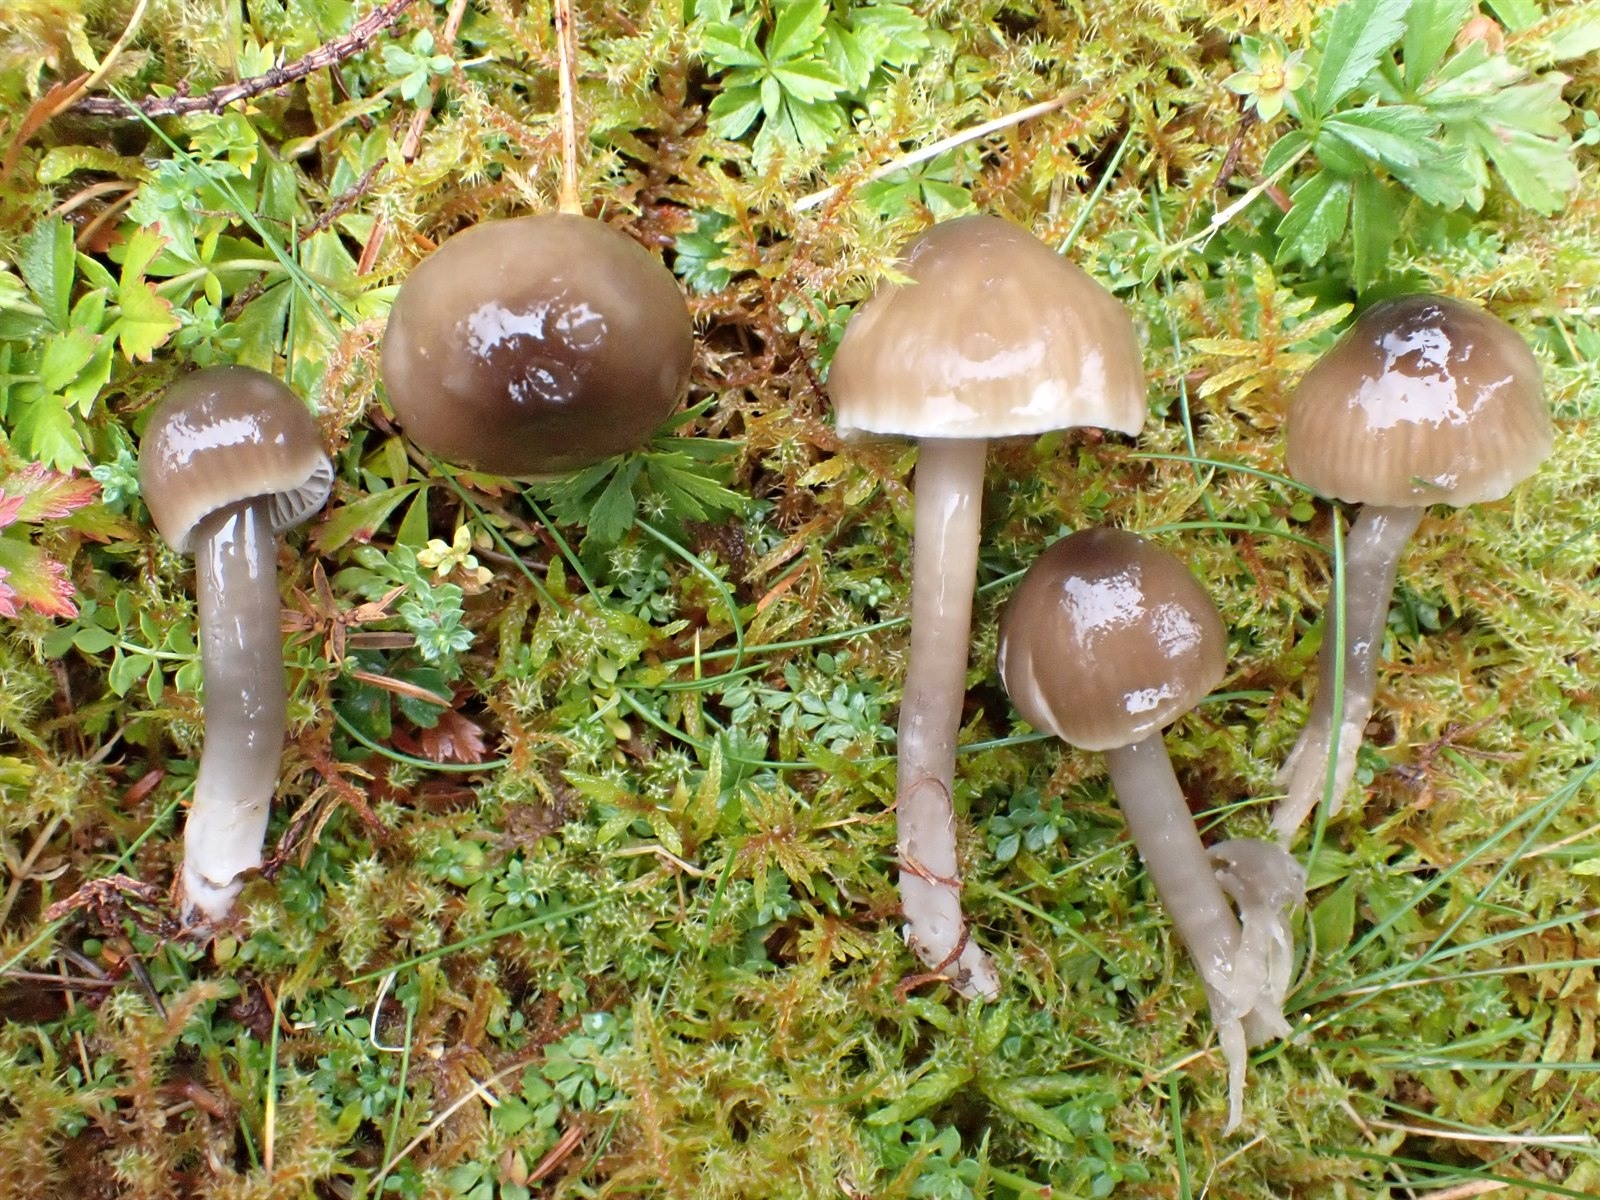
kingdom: Fungi
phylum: Basidiomycota
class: Agaricomycetes
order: Agaricales
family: Hygrophoraceae
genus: Gliophorus
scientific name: Gliophorus irrigatus
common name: Slimy waxcap
